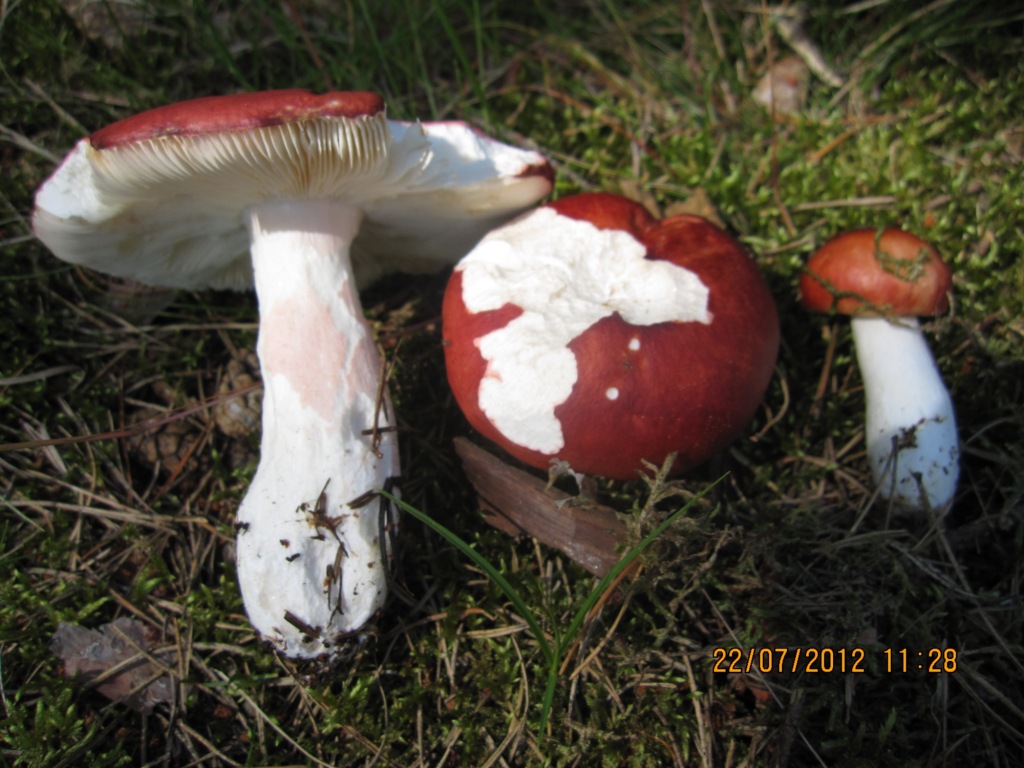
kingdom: Fungi
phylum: Basidiomycota
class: Agaricomycetes
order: Russulales
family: Russulaceae
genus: Russula
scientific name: Russula paludosa
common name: prægtig skørhat
